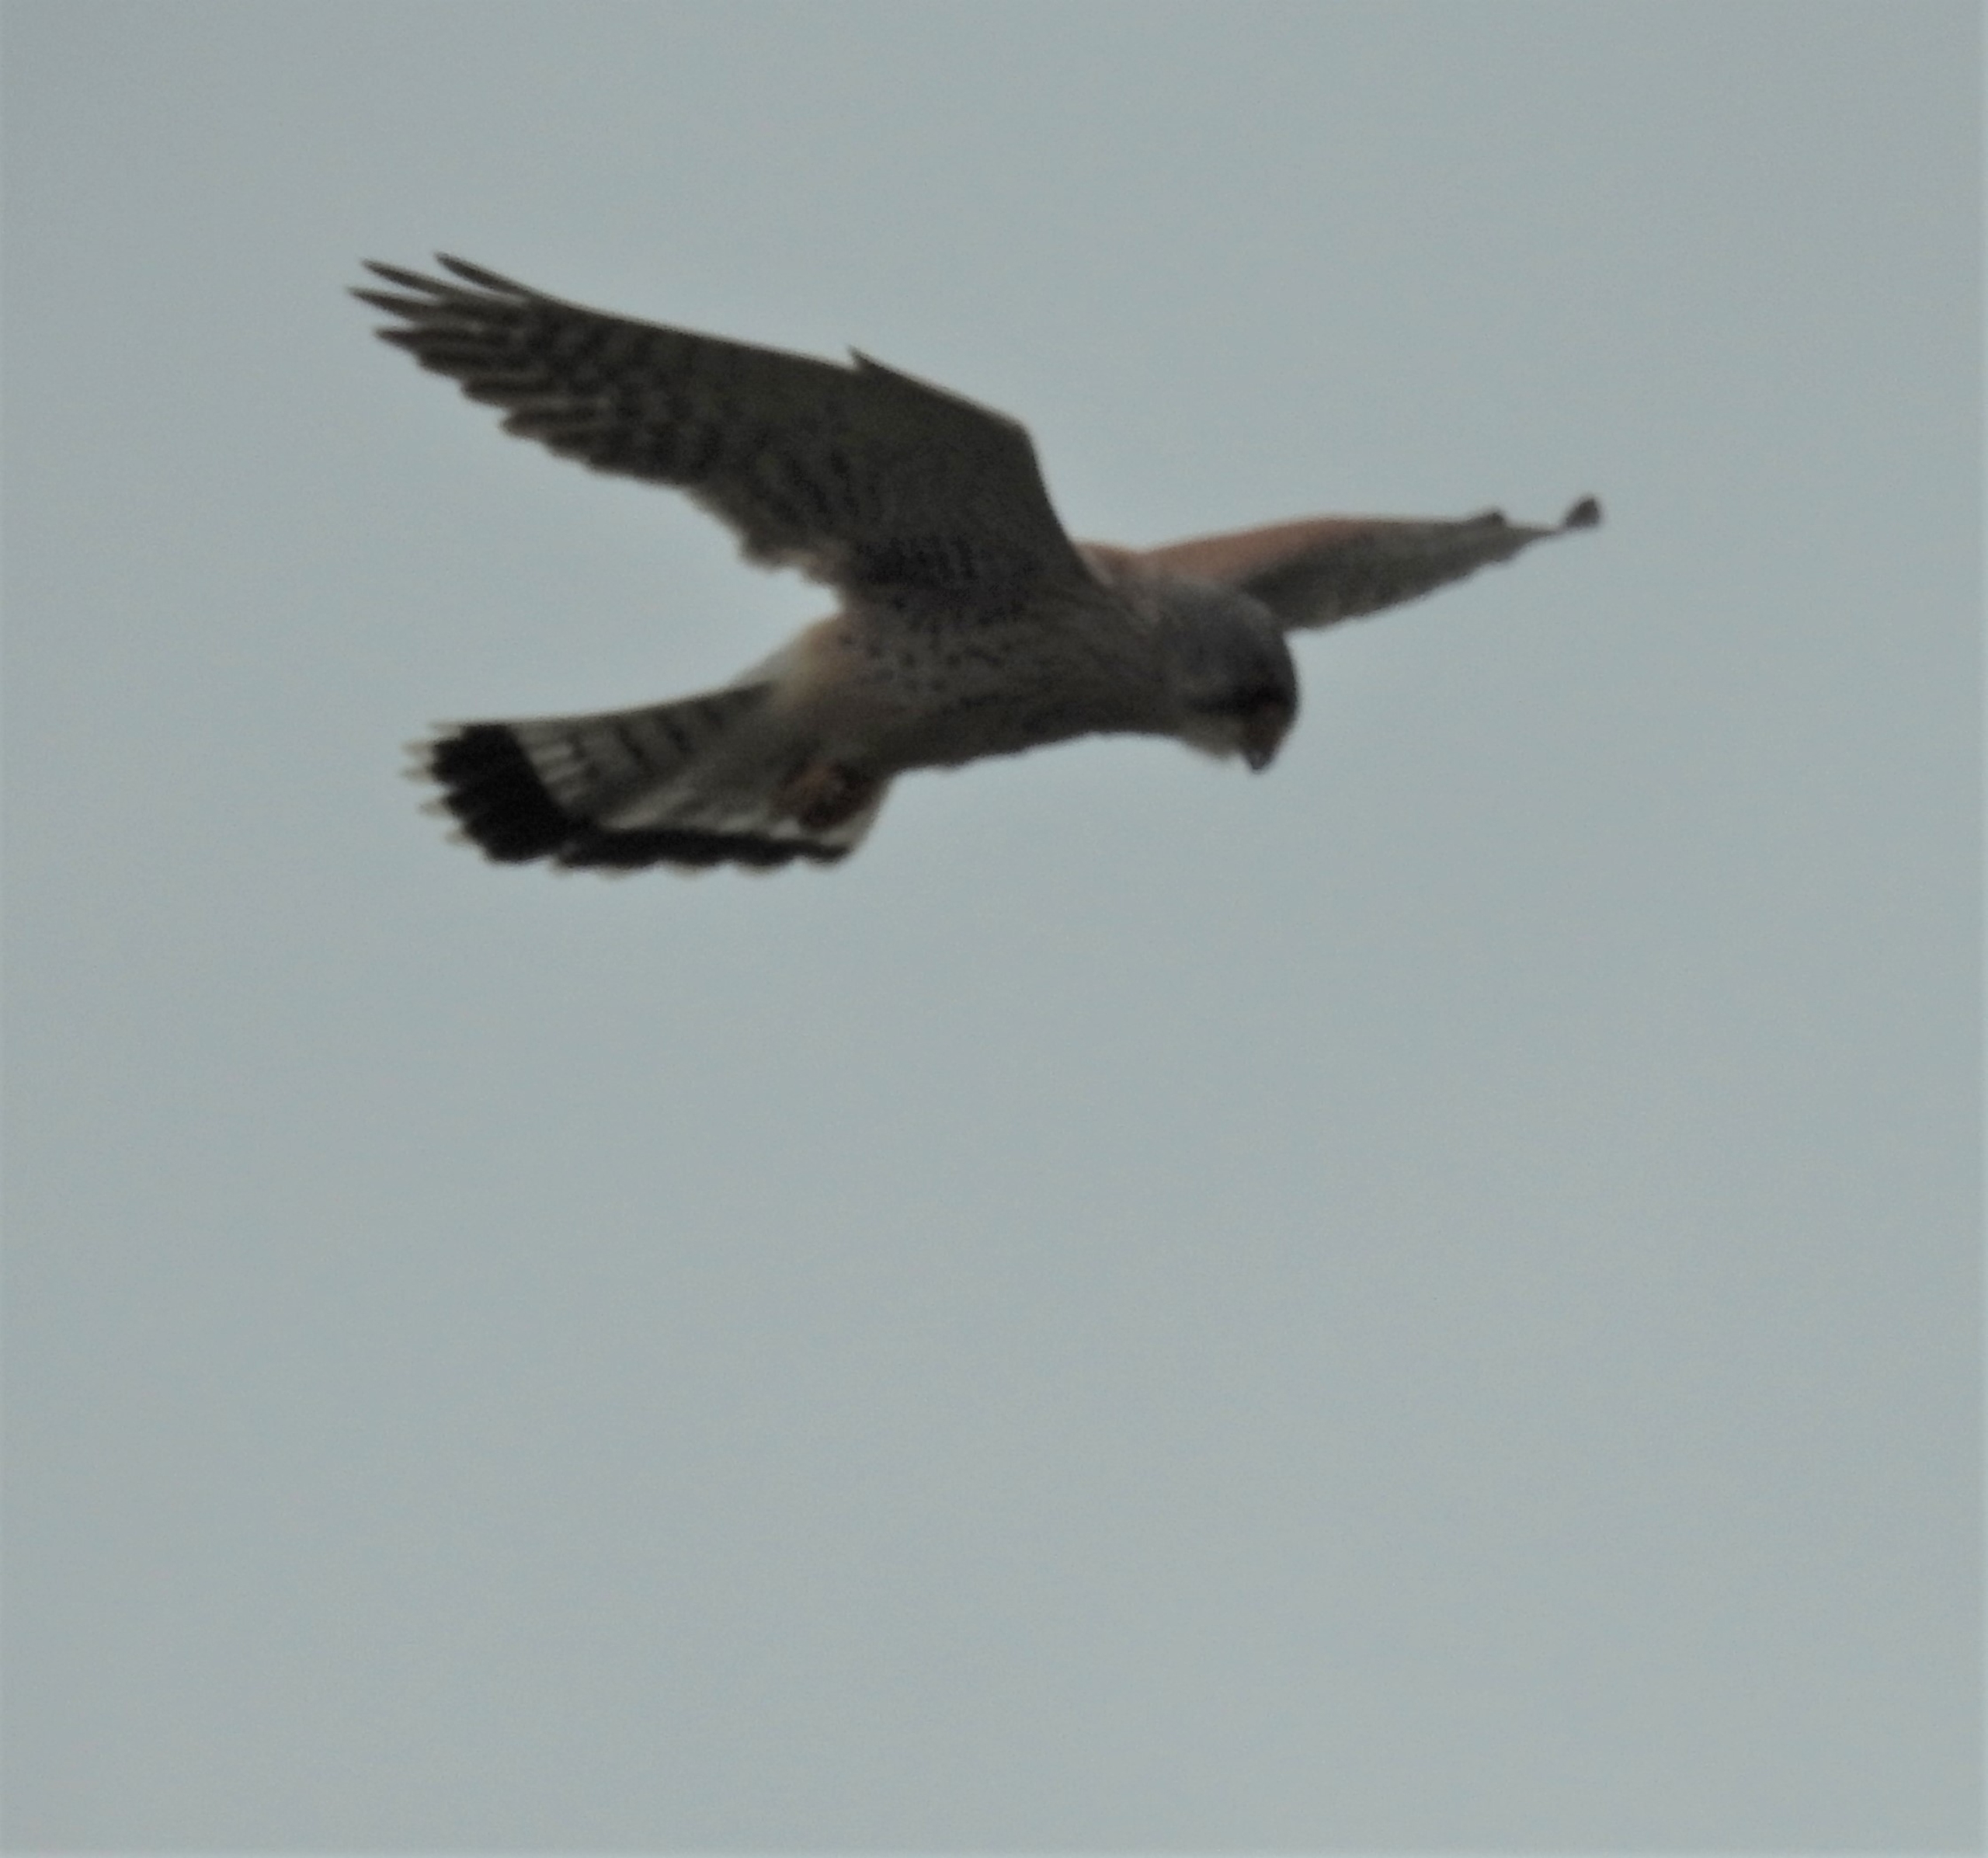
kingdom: Animalia
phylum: Chordata
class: Aves
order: Falconiformes
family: Falconidae
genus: Falco
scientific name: Falco tinnunculus
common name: Tårnfalk
